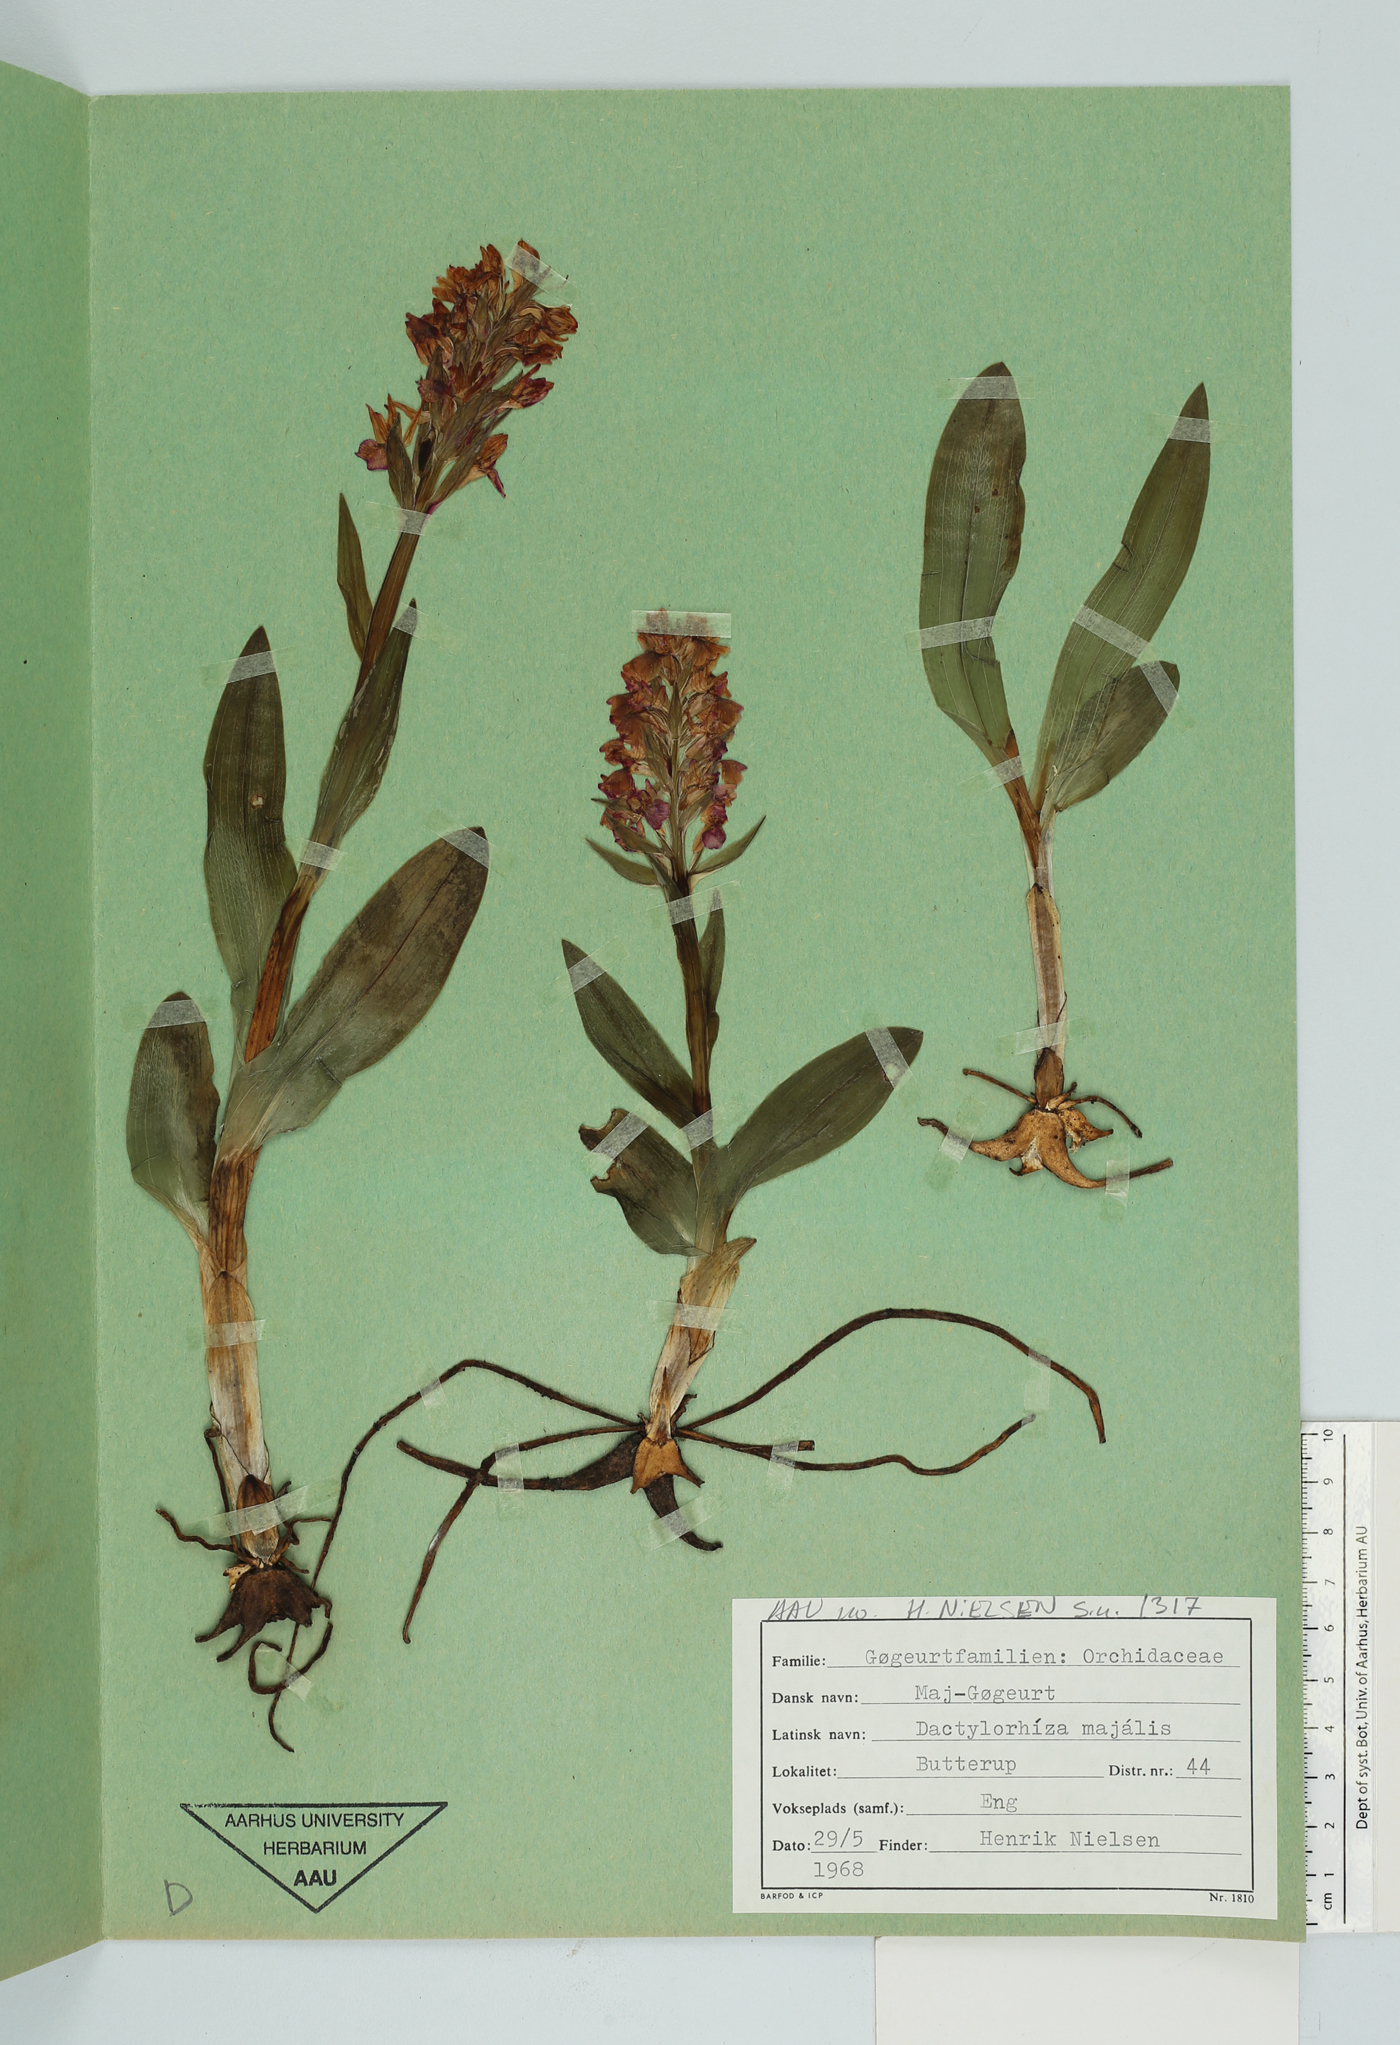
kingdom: Plantae
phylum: Tracheophyta
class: Liliopsida
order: Asparagales
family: Orchidaceae
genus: Dactylorhiza
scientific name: Dactylorhiza majalis
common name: Marsh orchid
